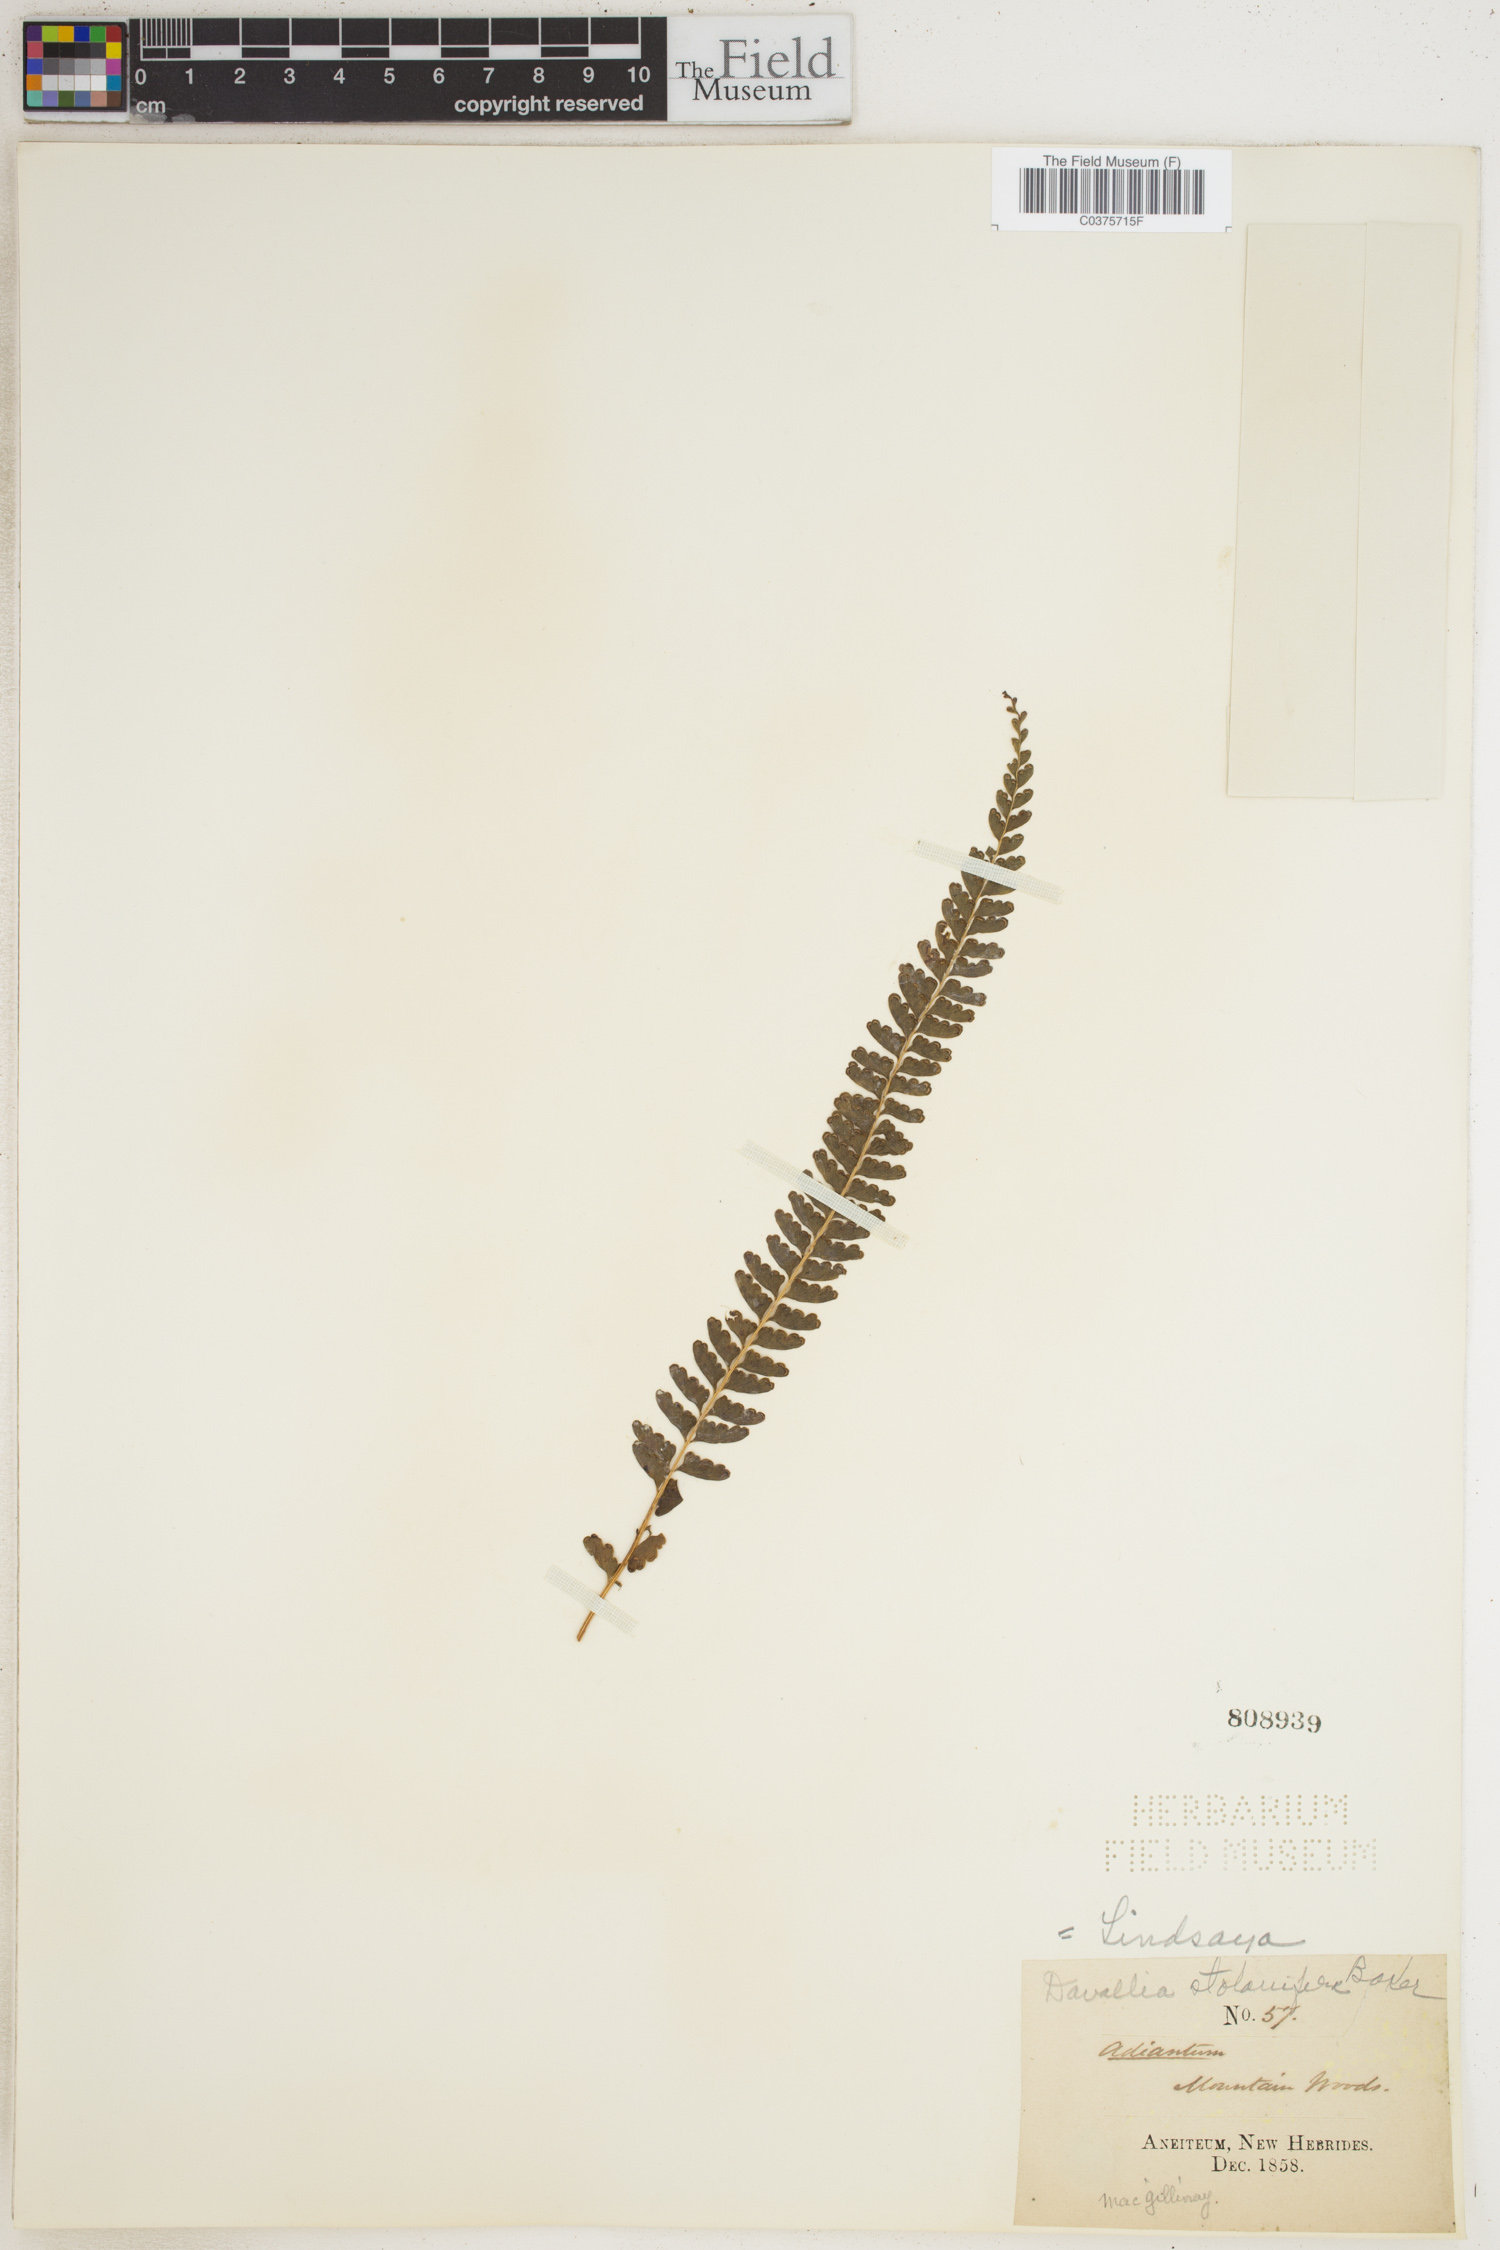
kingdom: Plantae
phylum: Tracheophyta
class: Polypodiopsida
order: Polypodiales
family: Lindsaeaceae
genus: Lindsaea
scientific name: Lindsaea pickeringii
